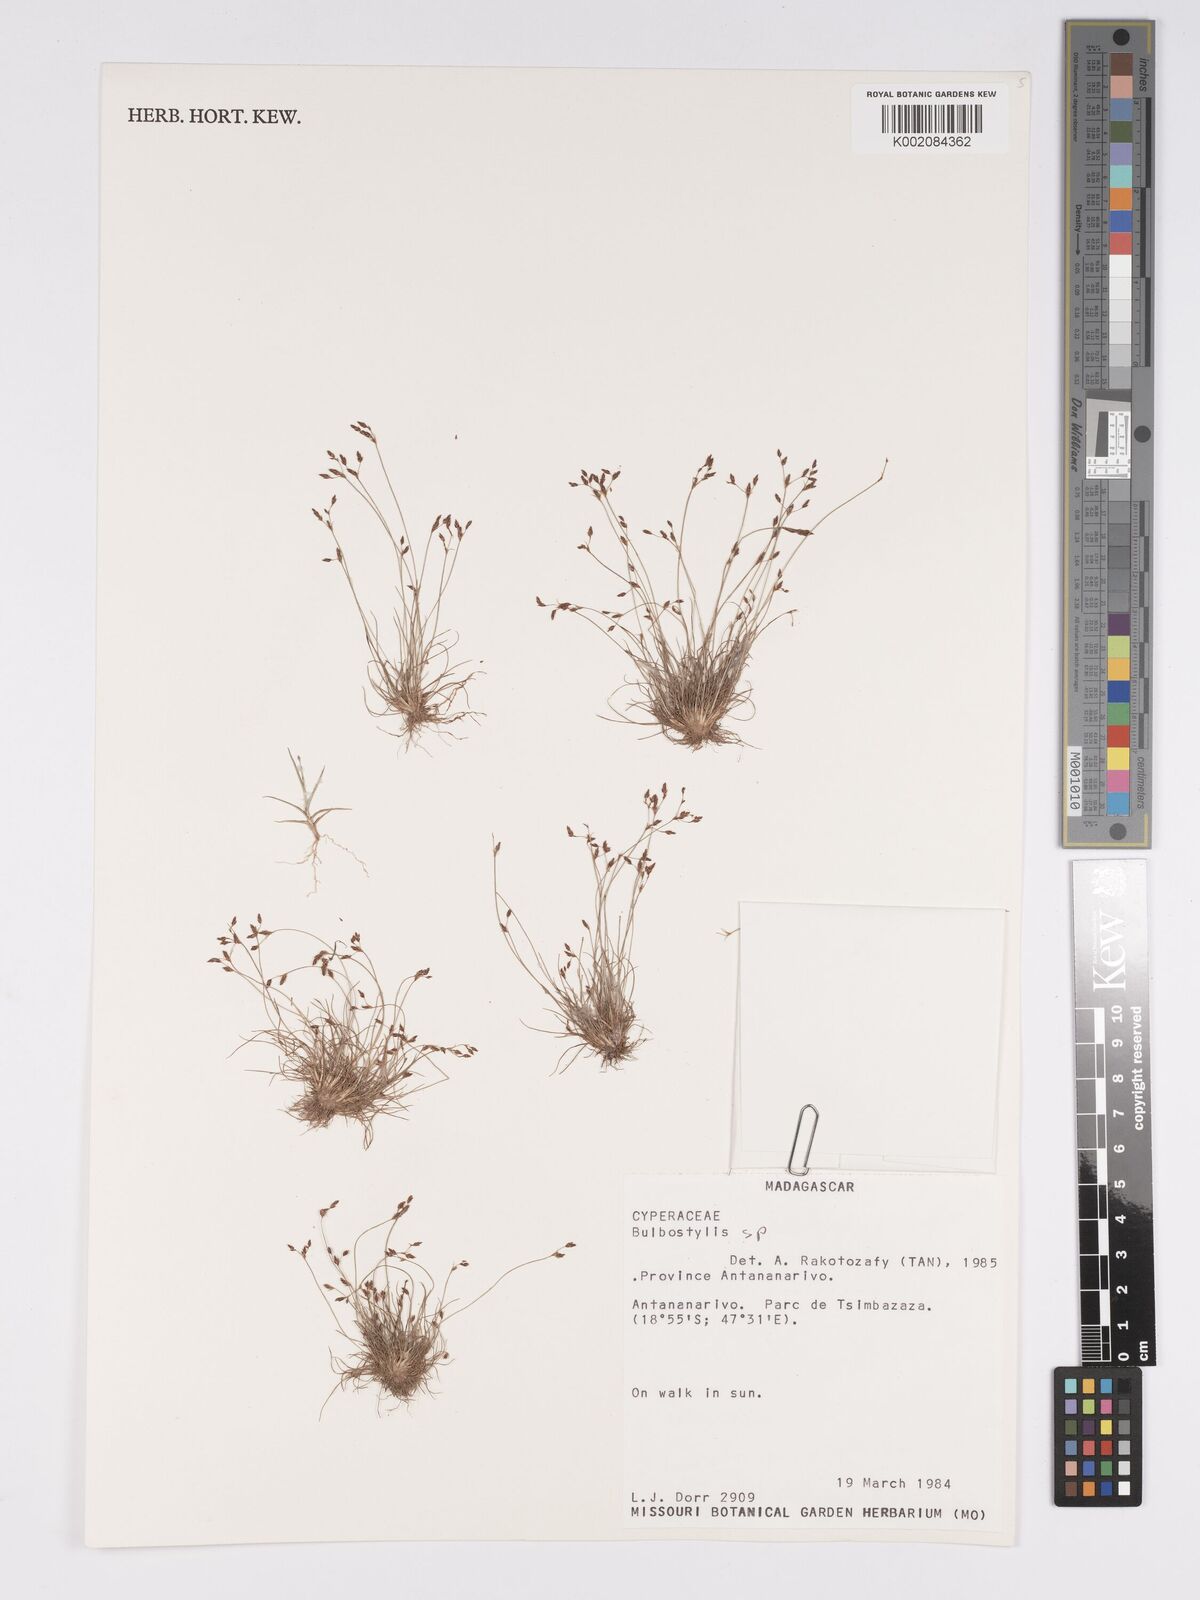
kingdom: Plantae
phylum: Tracheophyta
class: Liliopsida
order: Poales
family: Cyperaceae
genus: Bulbostylis
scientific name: Bulbostylis
